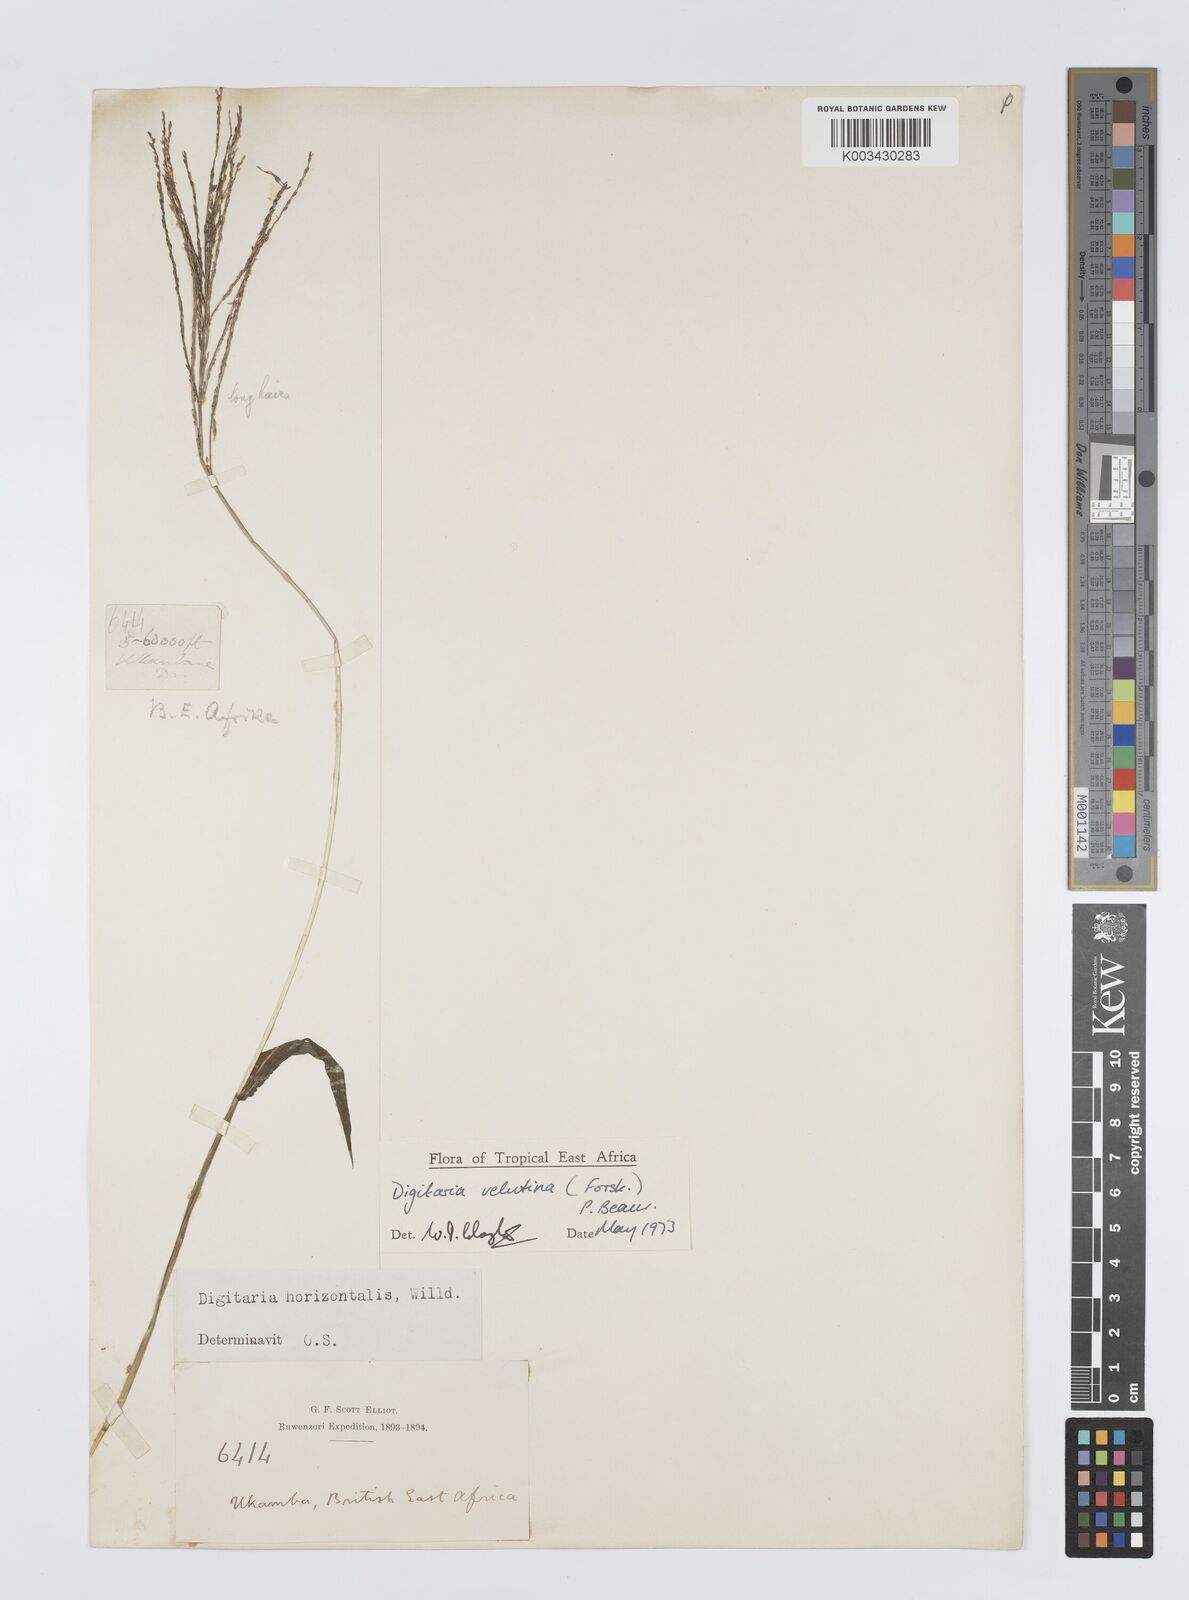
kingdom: Plantae
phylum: Tracheophyta
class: Liliopsida
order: Poales
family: Poaceae
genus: Digitaria
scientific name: Digitaria velutina
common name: Long-plume finger grass
